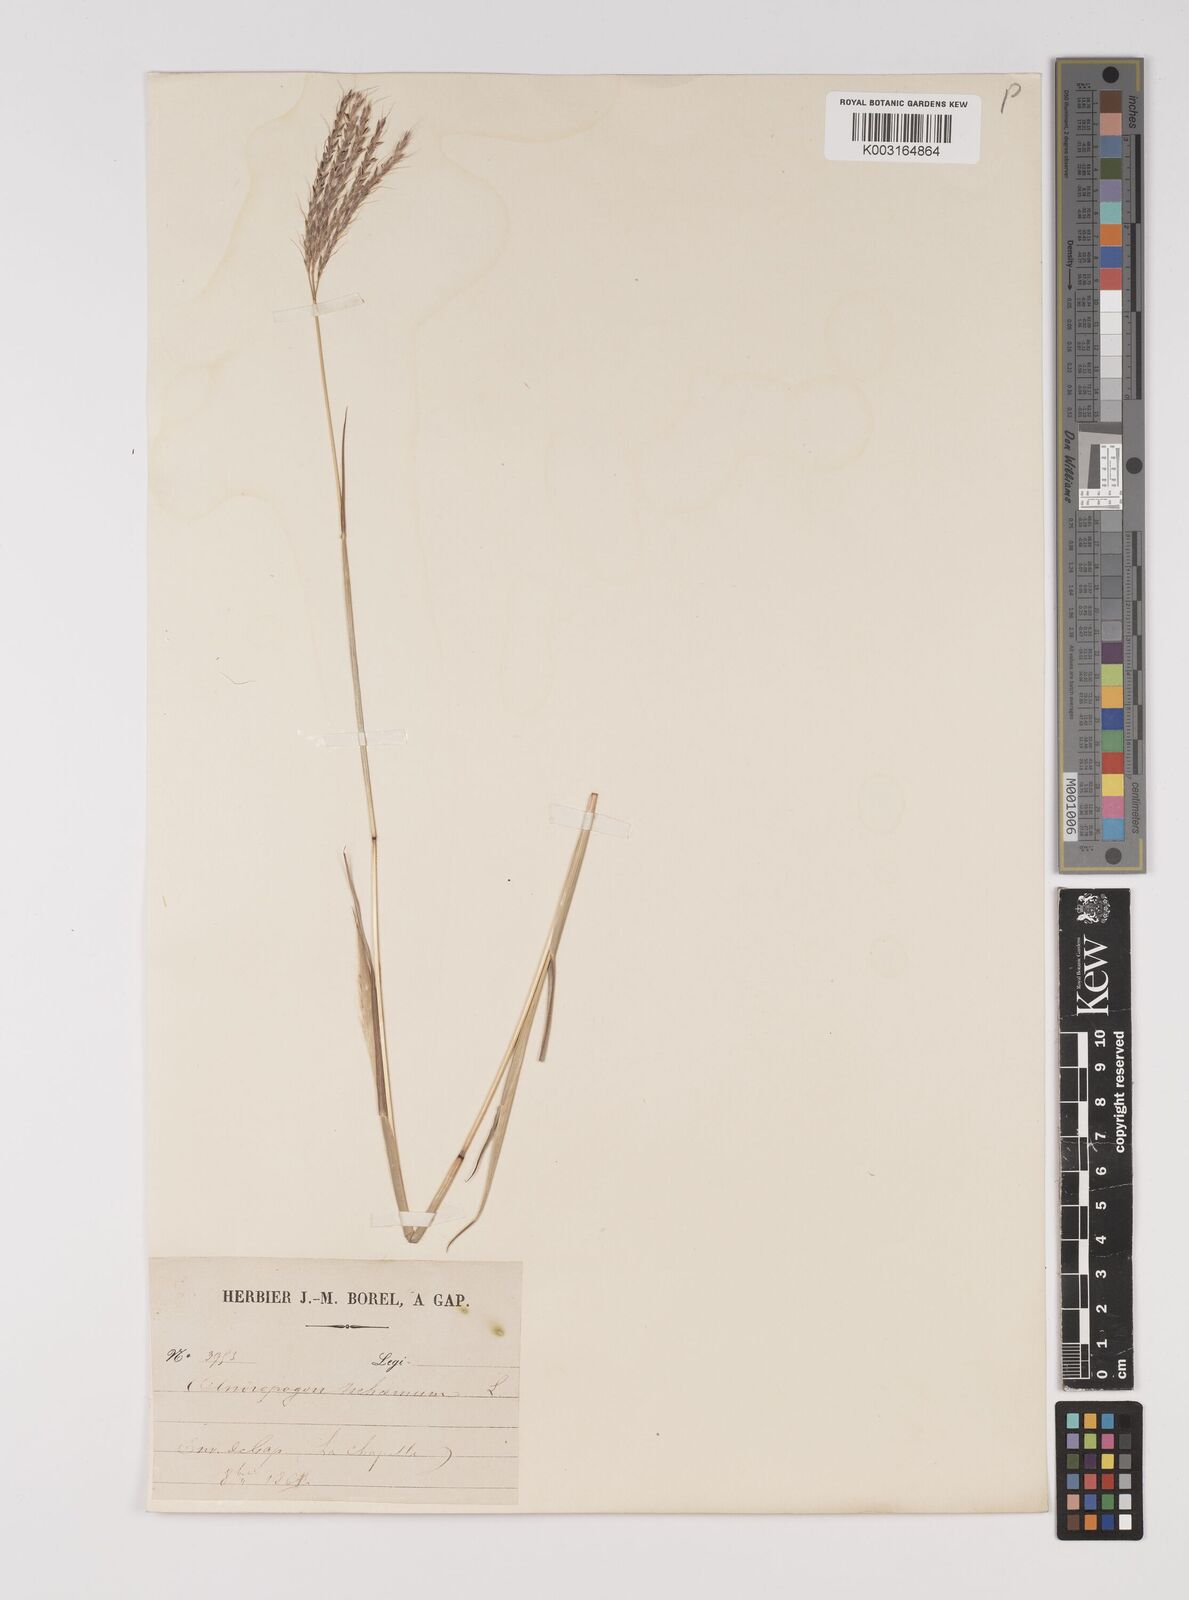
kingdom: Plantae
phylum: Tracheophyta
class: Liliopsida
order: Poales
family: Poaceae
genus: Bothriochloa
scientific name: Bothriochloa ischaemum
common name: Yellow bluestem
